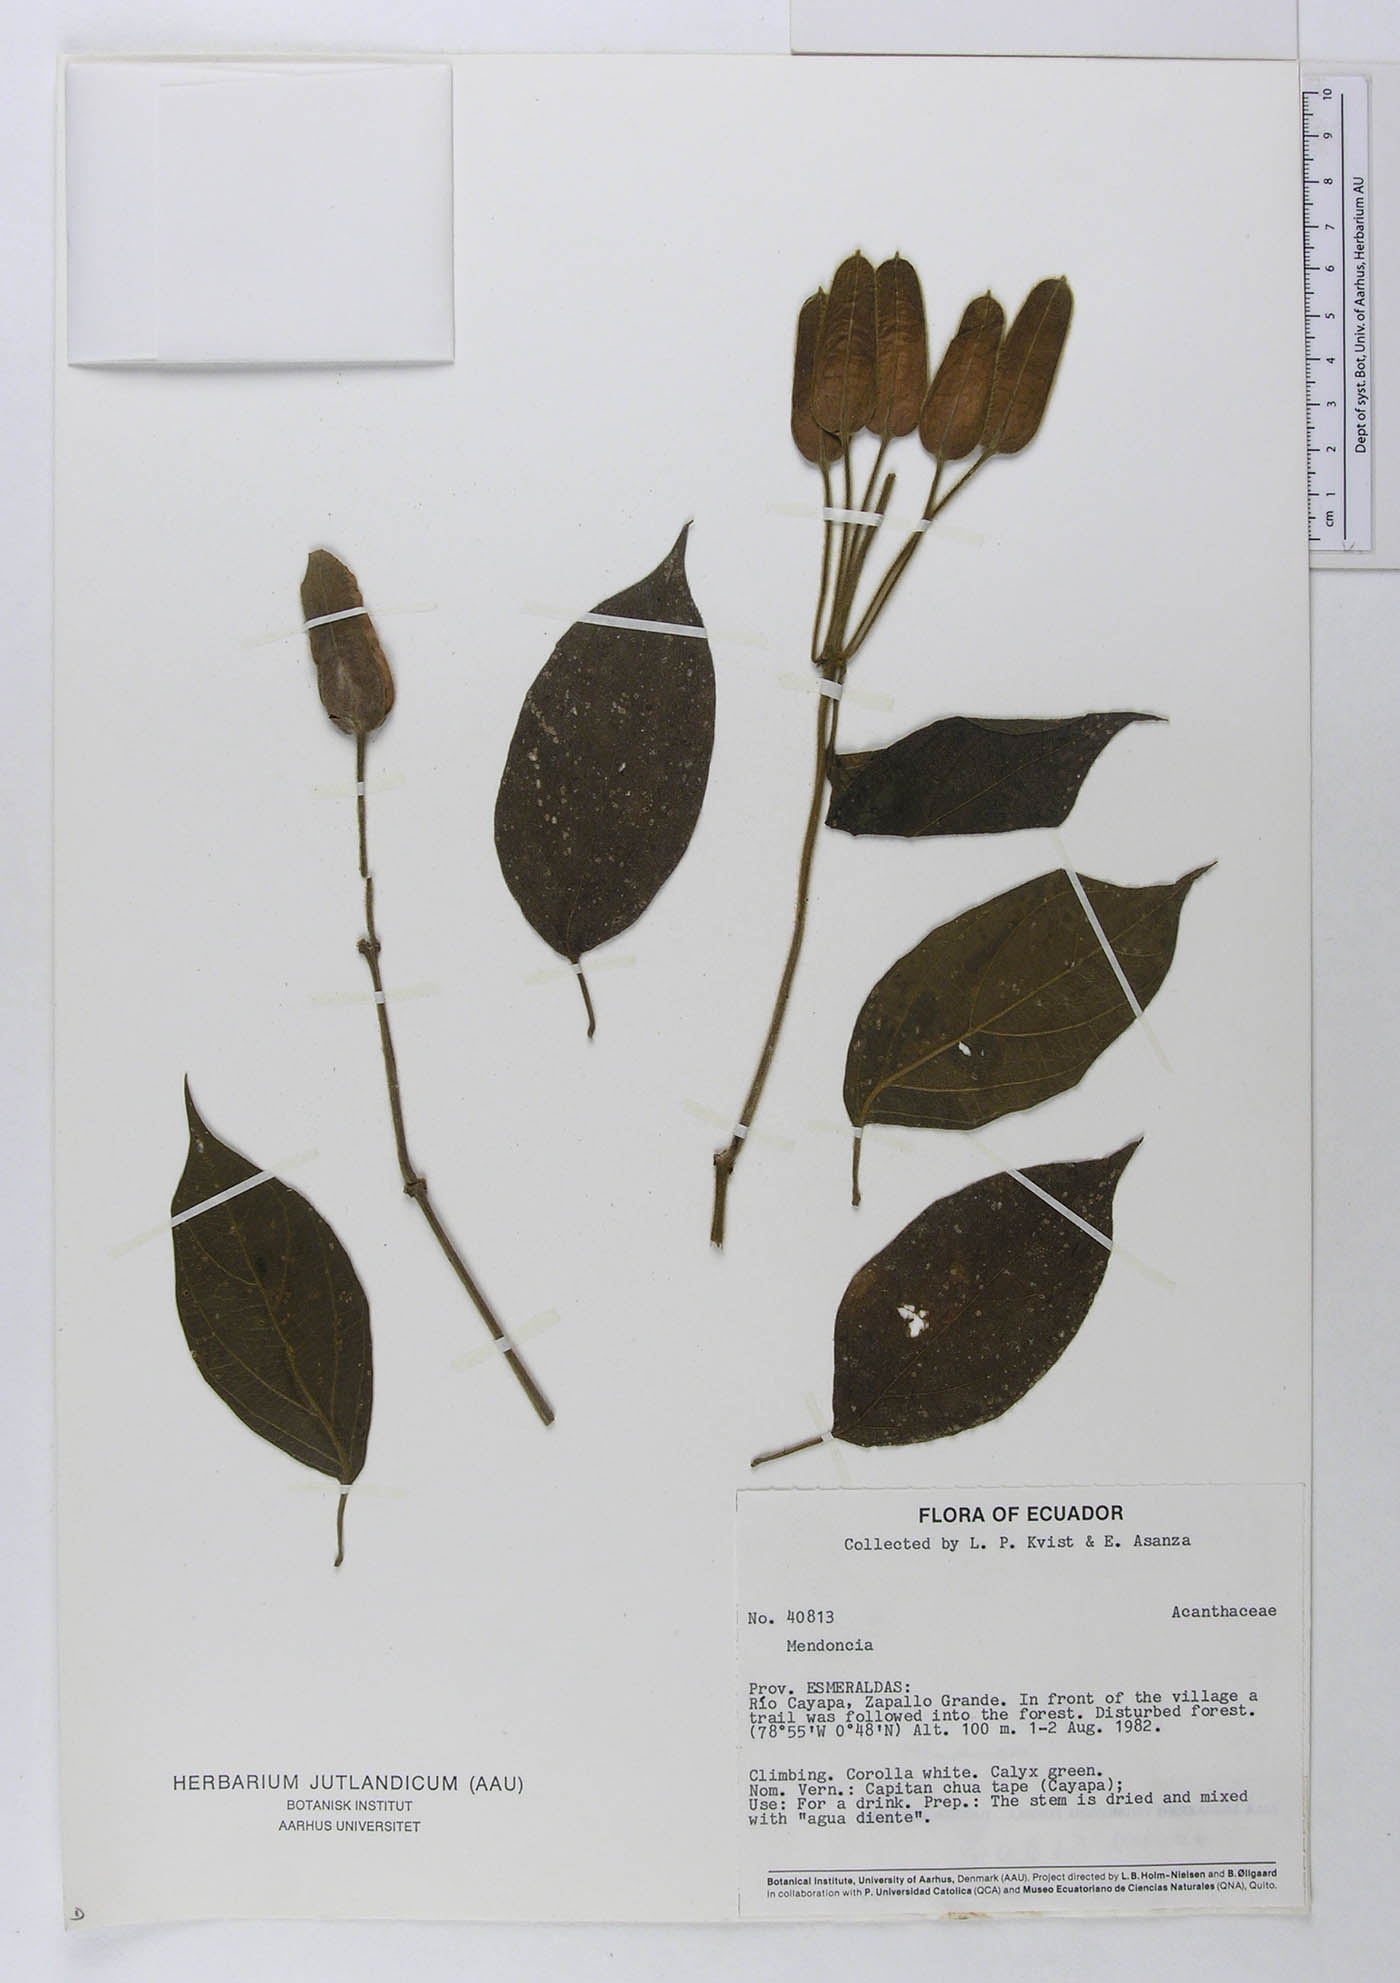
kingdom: Plantae
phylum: Tracheophyta
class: Magnoliopsida
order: Lamiales
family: Acanthaceae
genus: Mendoncia
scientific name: Mendoncia
